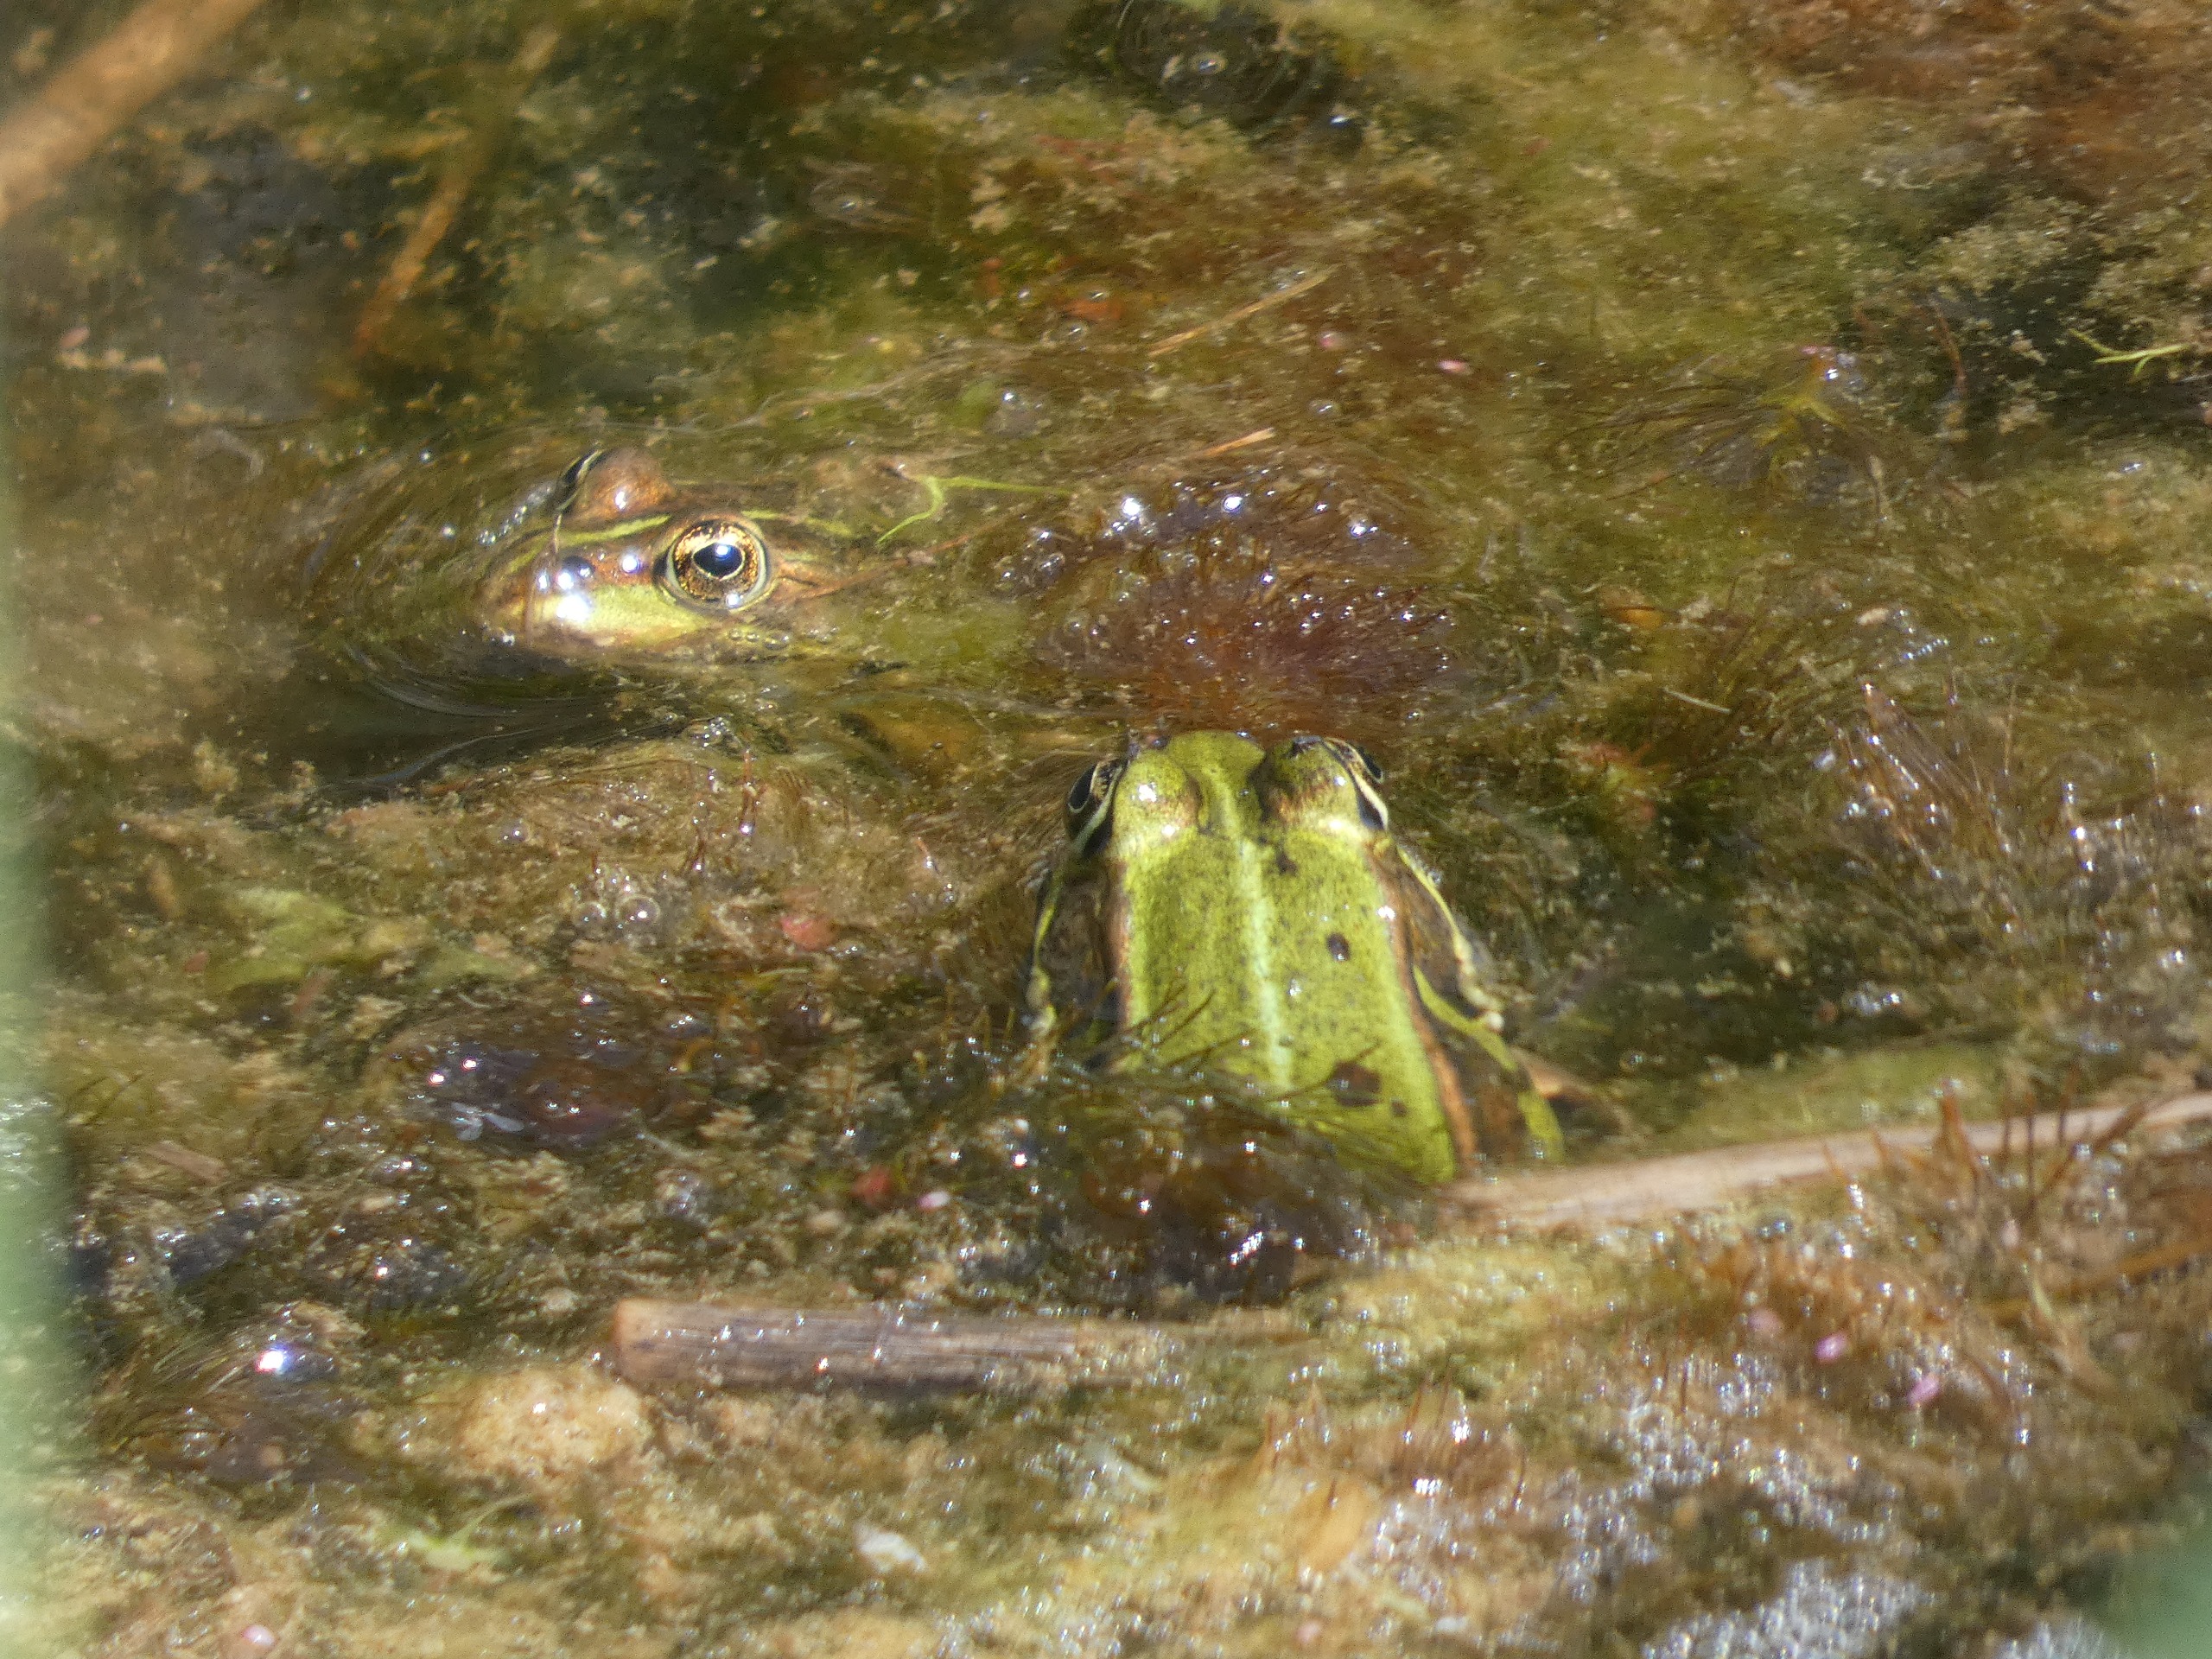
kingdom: Animalia
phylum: Chordata
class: Amphibia
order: Anura
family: Ranidae
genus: Pelophylax
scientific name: Pelophylax lessonae
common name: Grøn frø
